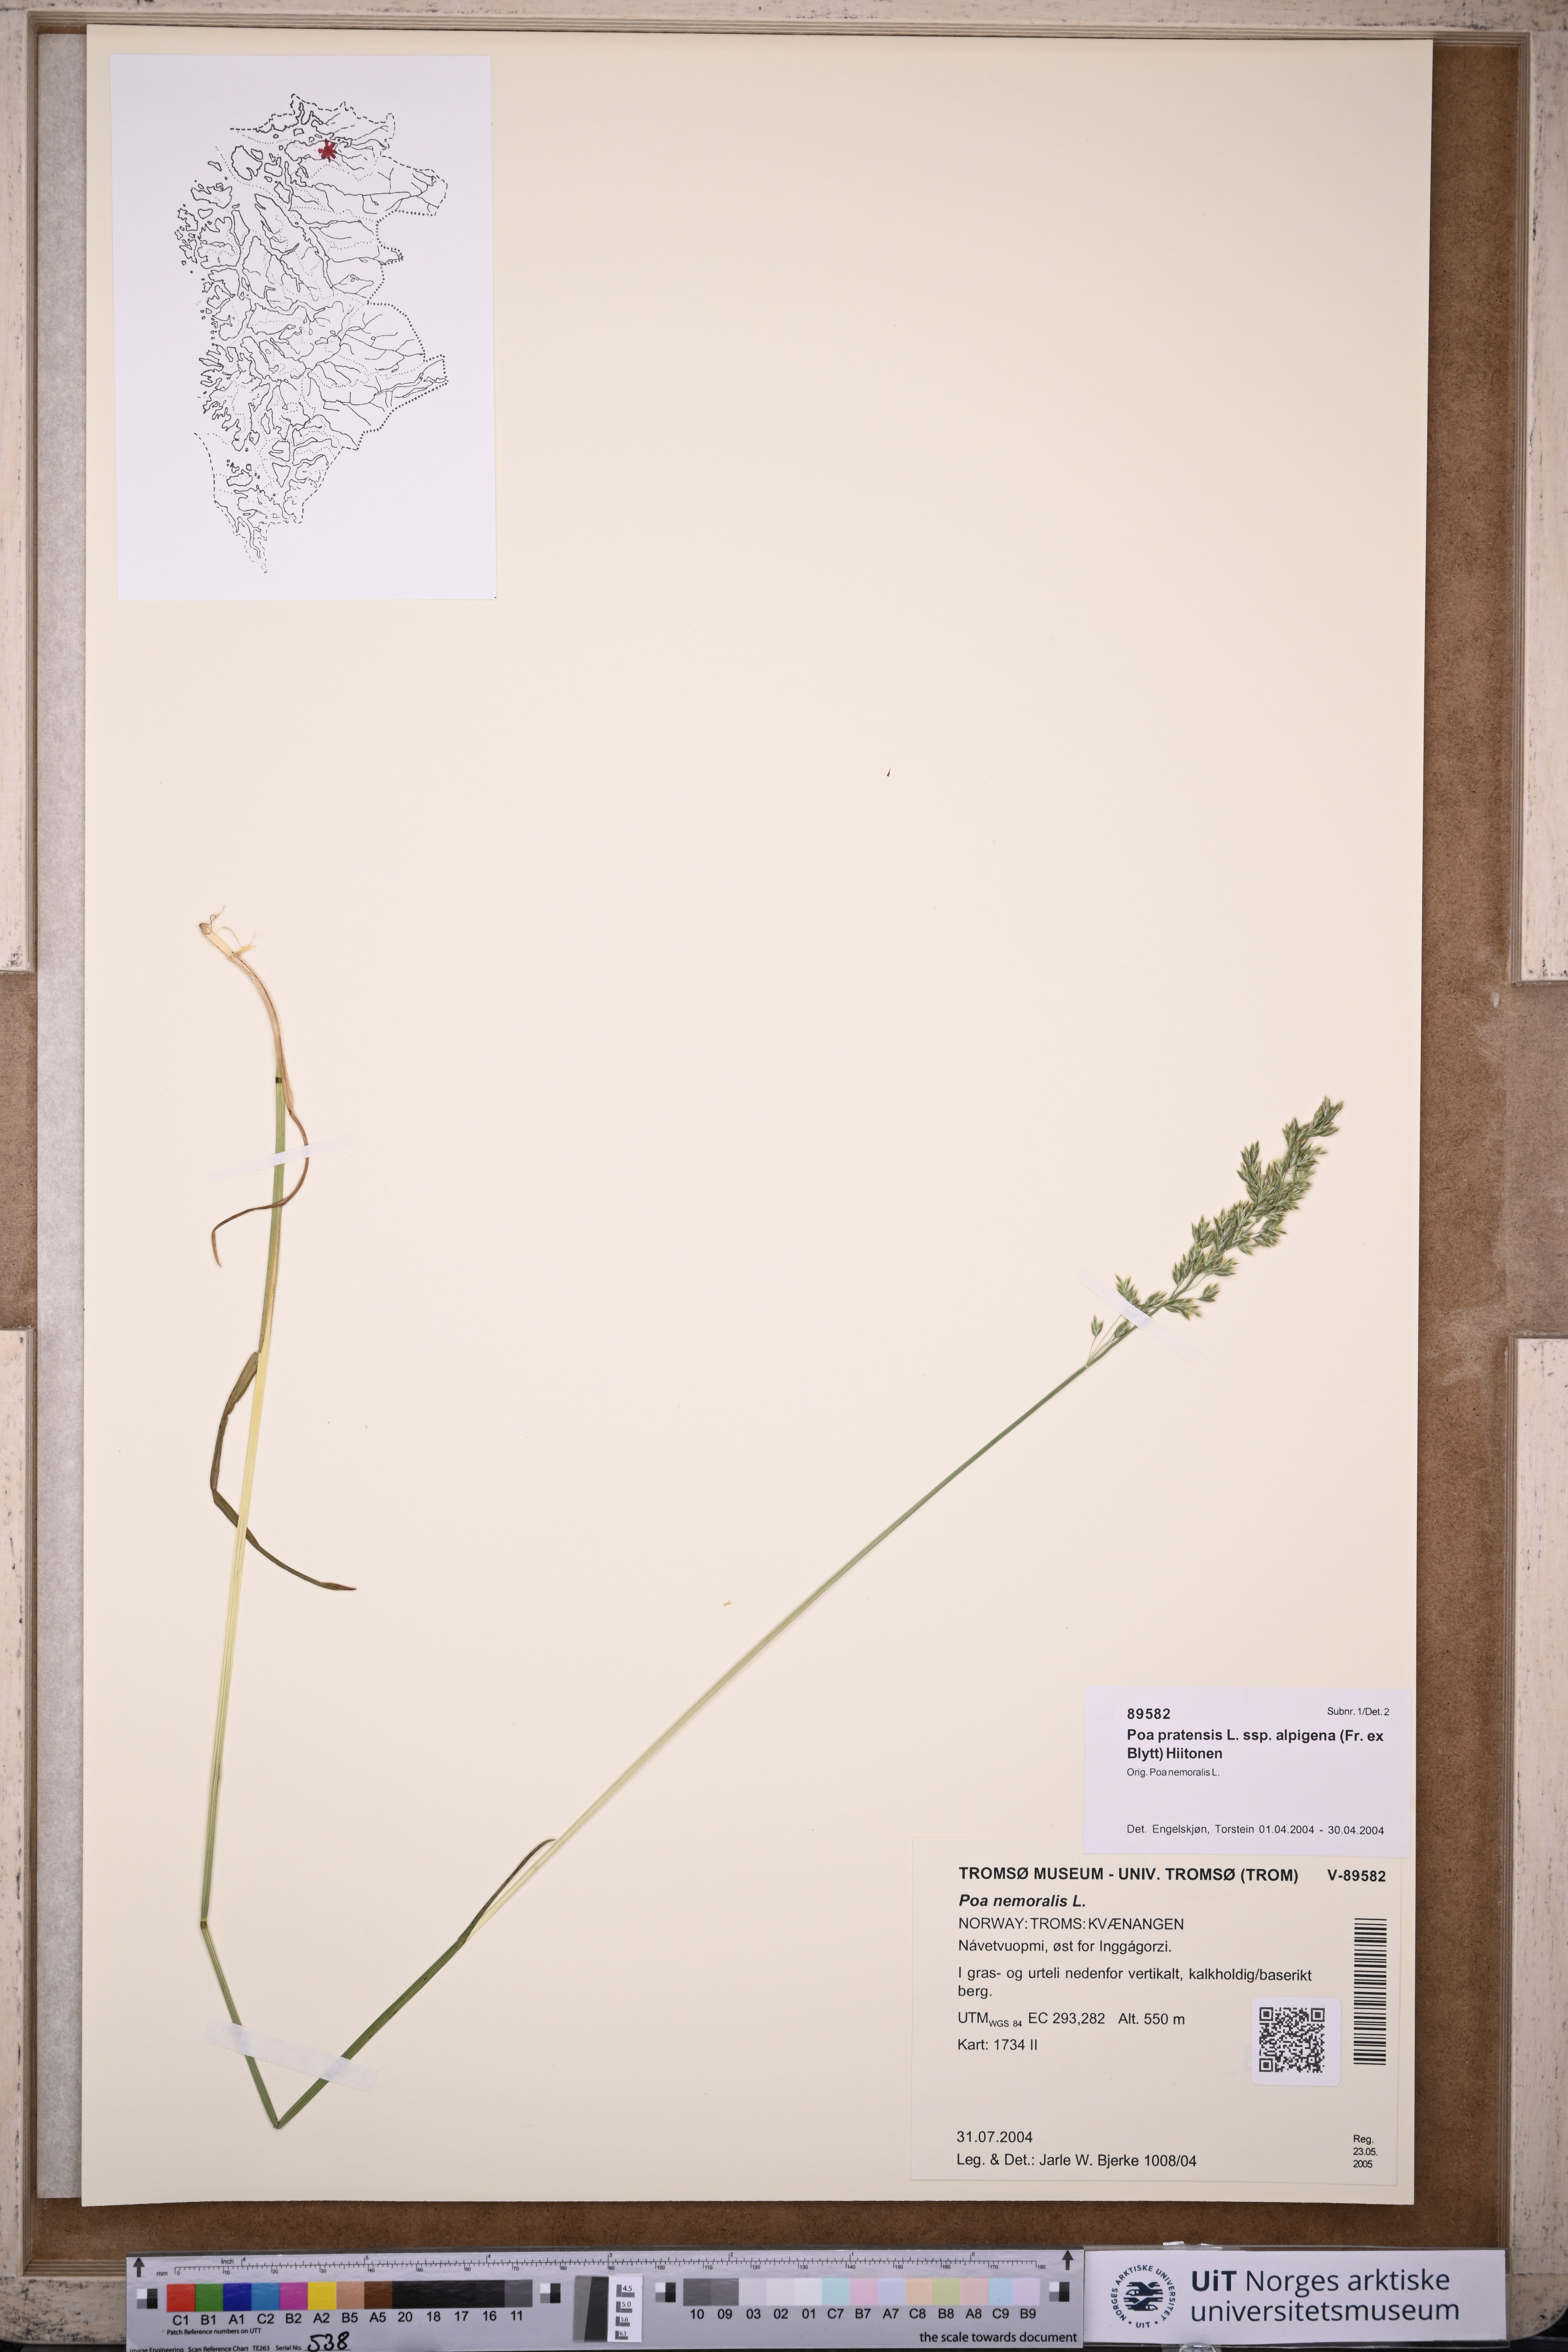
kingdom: Plantae
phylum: Tracheophyta
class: Liliopsida
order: Poales
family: Poaceae
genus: Poa
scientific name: Poa alpigena
